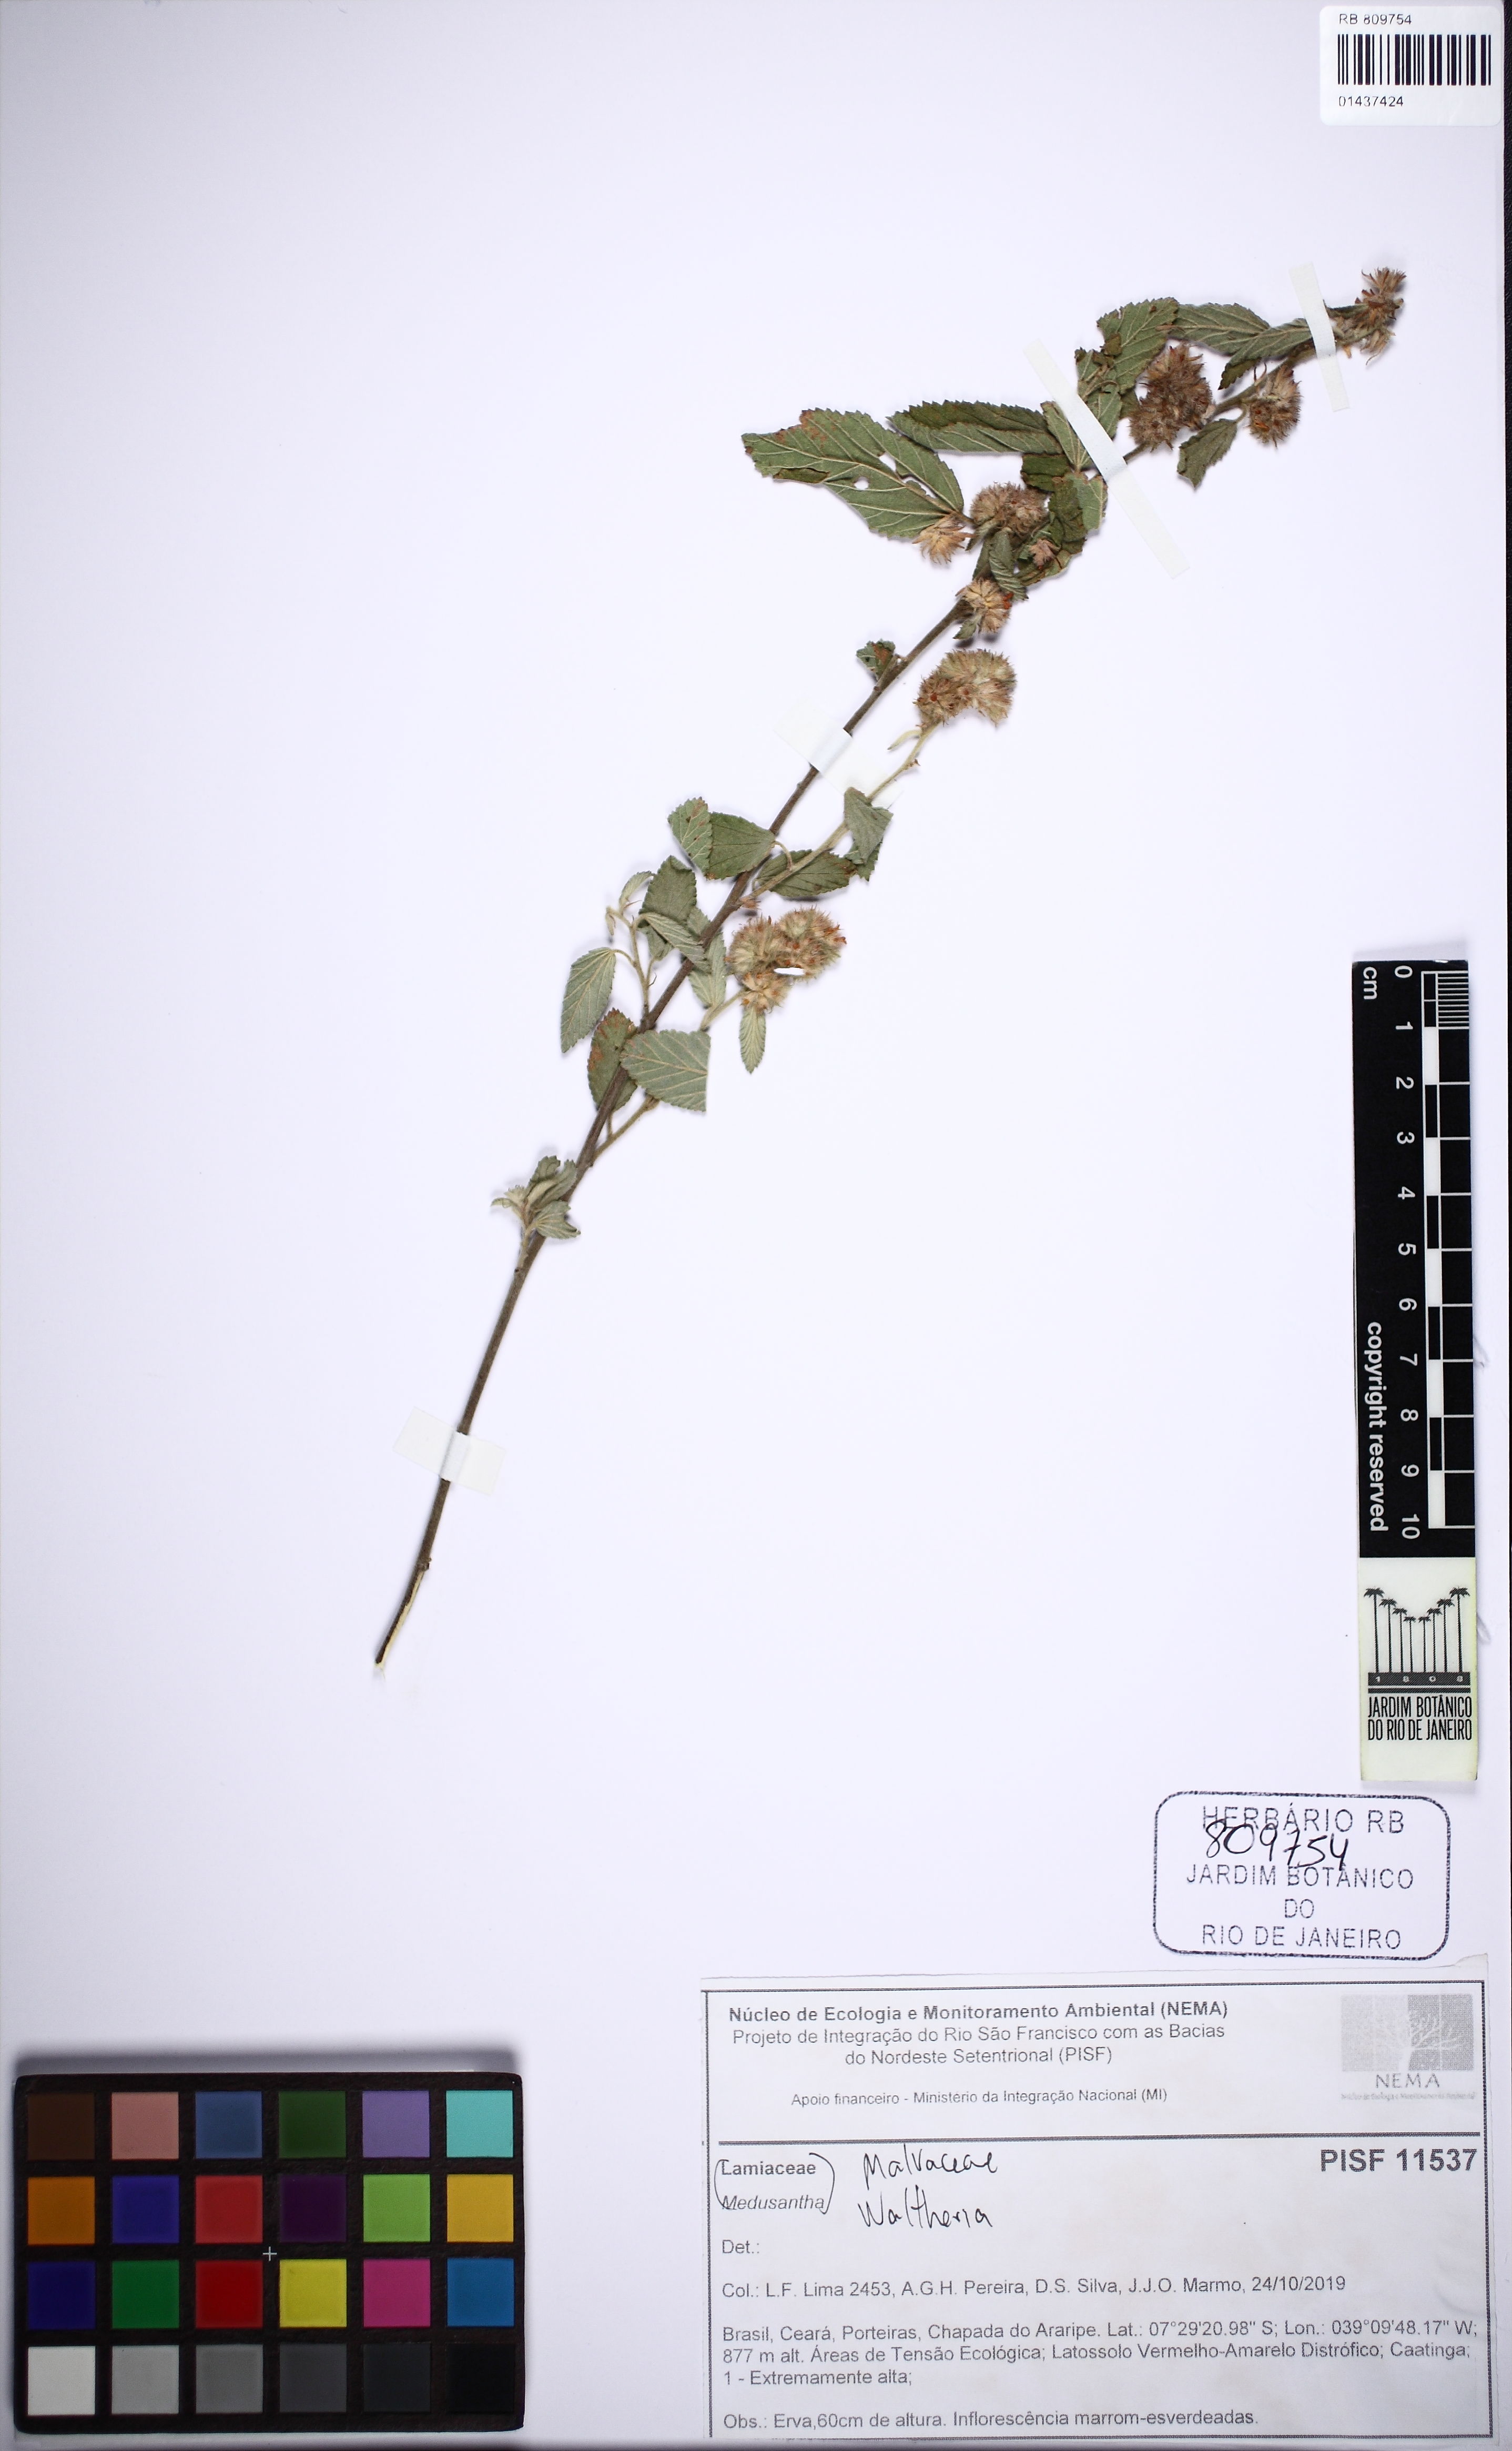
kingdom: Plantae
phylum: Tracheophyta
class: Magnoliopsida
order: Malvales
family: Malvaceae
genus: Waltheria
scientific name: Waltheria
